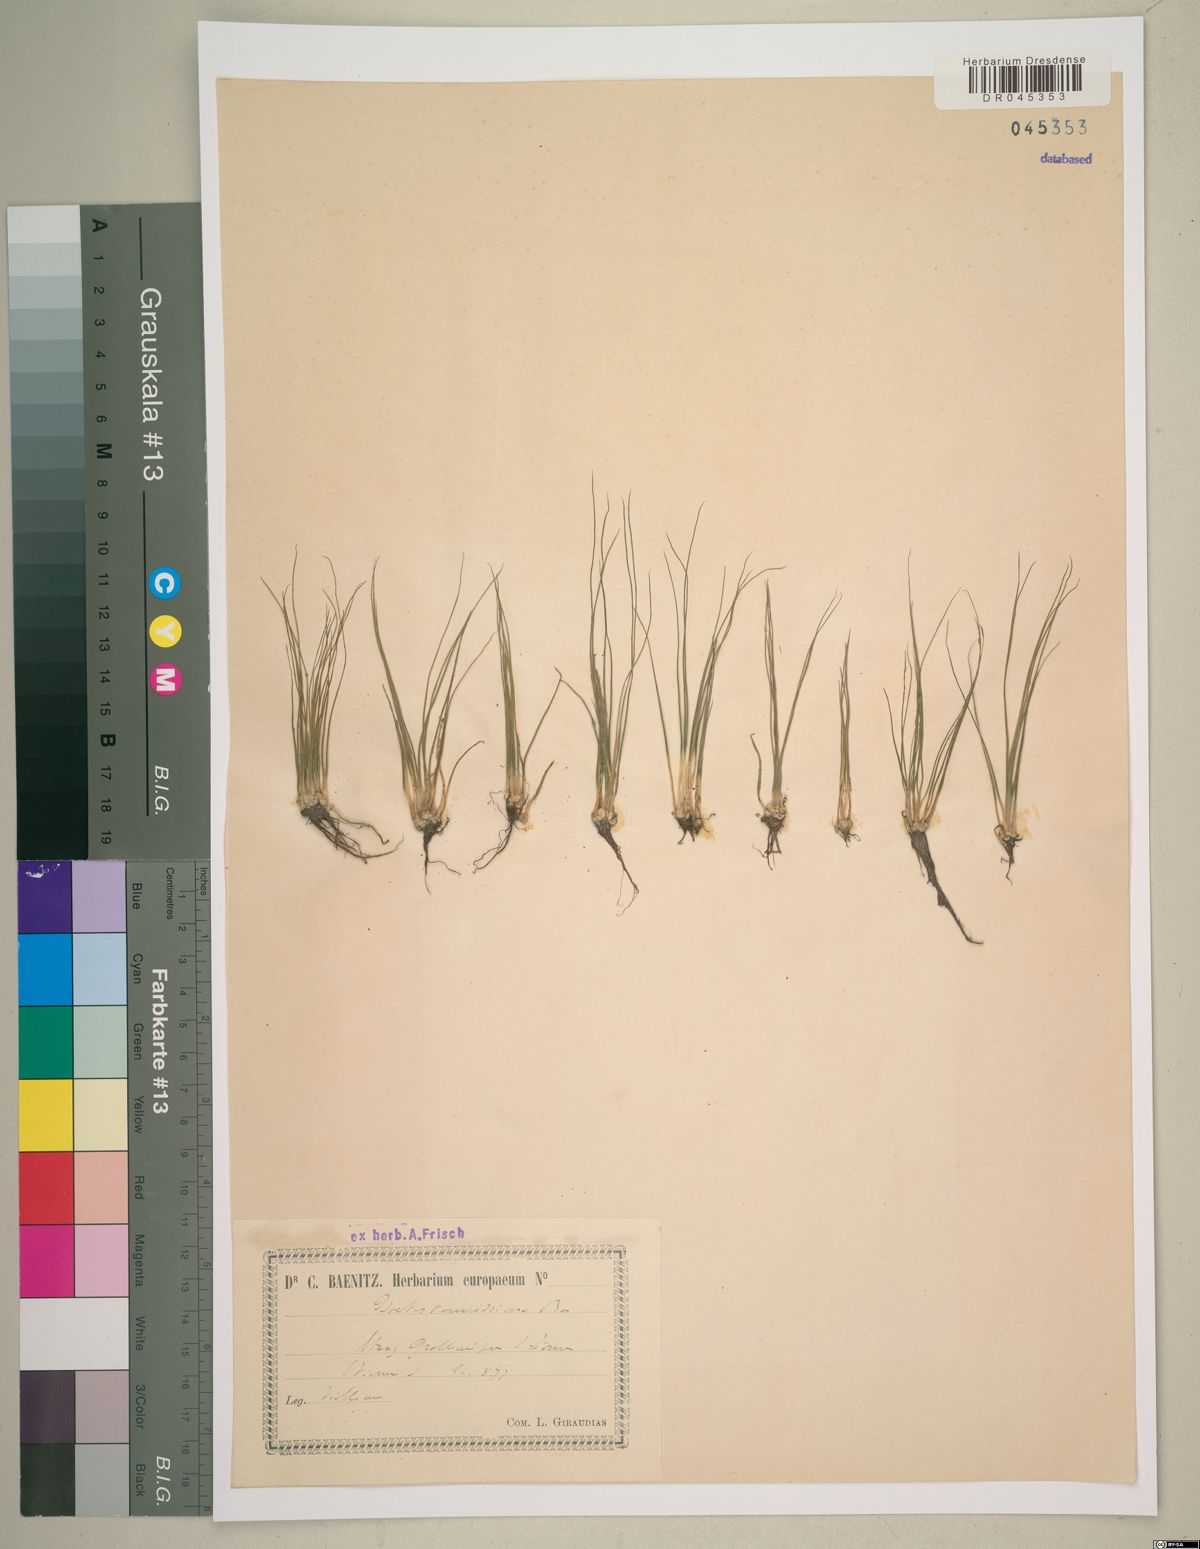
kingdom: Plantae
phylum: Tracheophyta
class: Lycopodiopsida
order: Isoetales
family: Isoetaceae
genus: Isoetes
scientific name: Isoetes longissima
